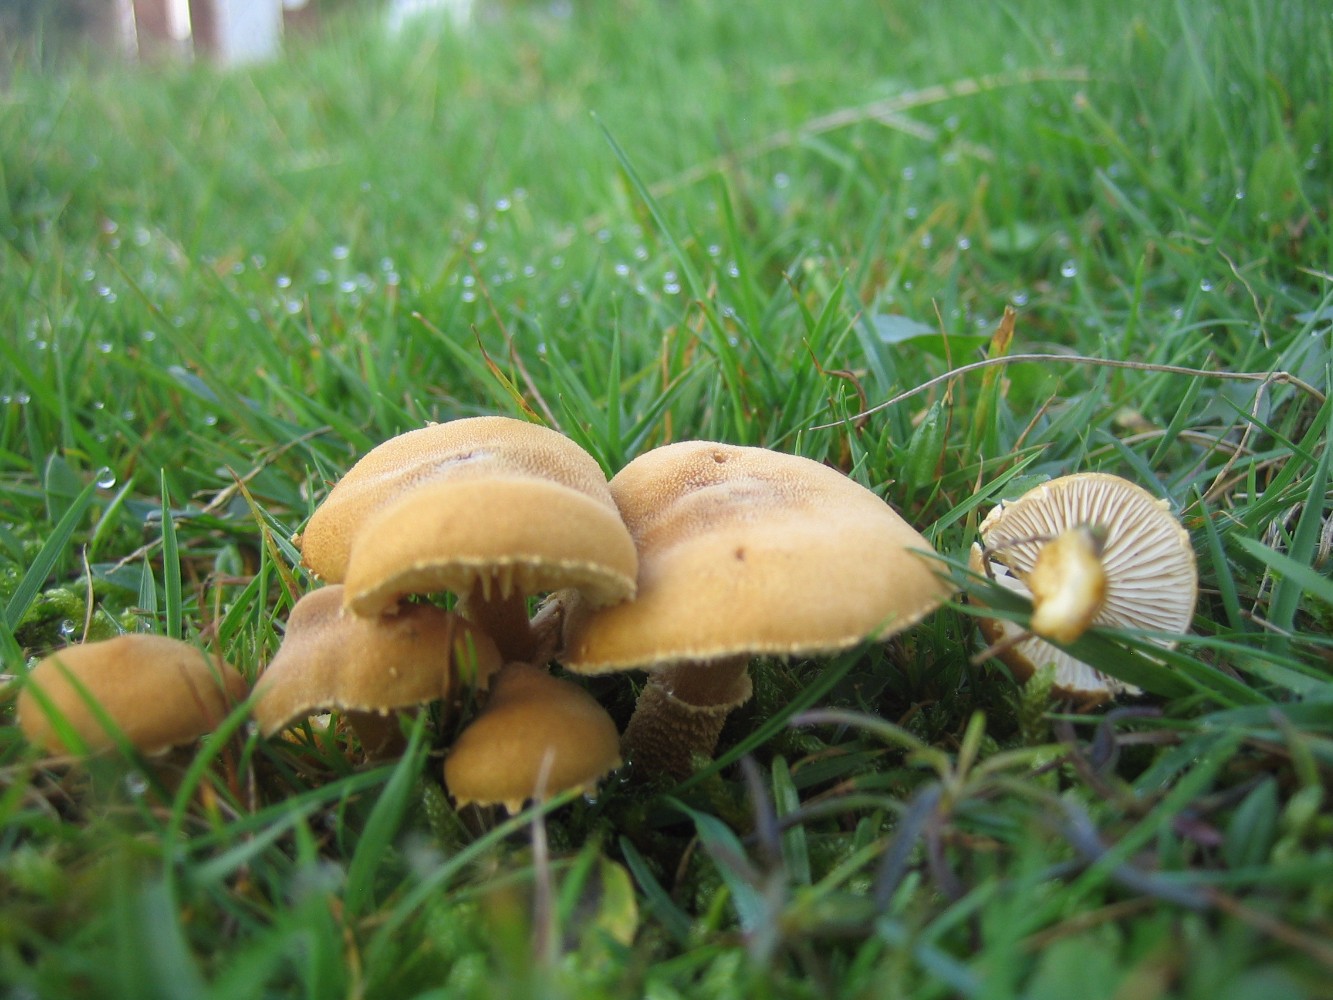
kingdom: Fungi
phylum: Basidiomycota
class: Agaricomycetes
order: Agaricales
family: Tricholomataceae
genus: Cystoderma
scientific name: Cystoderma amianthinum
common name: okkergul grynhat
